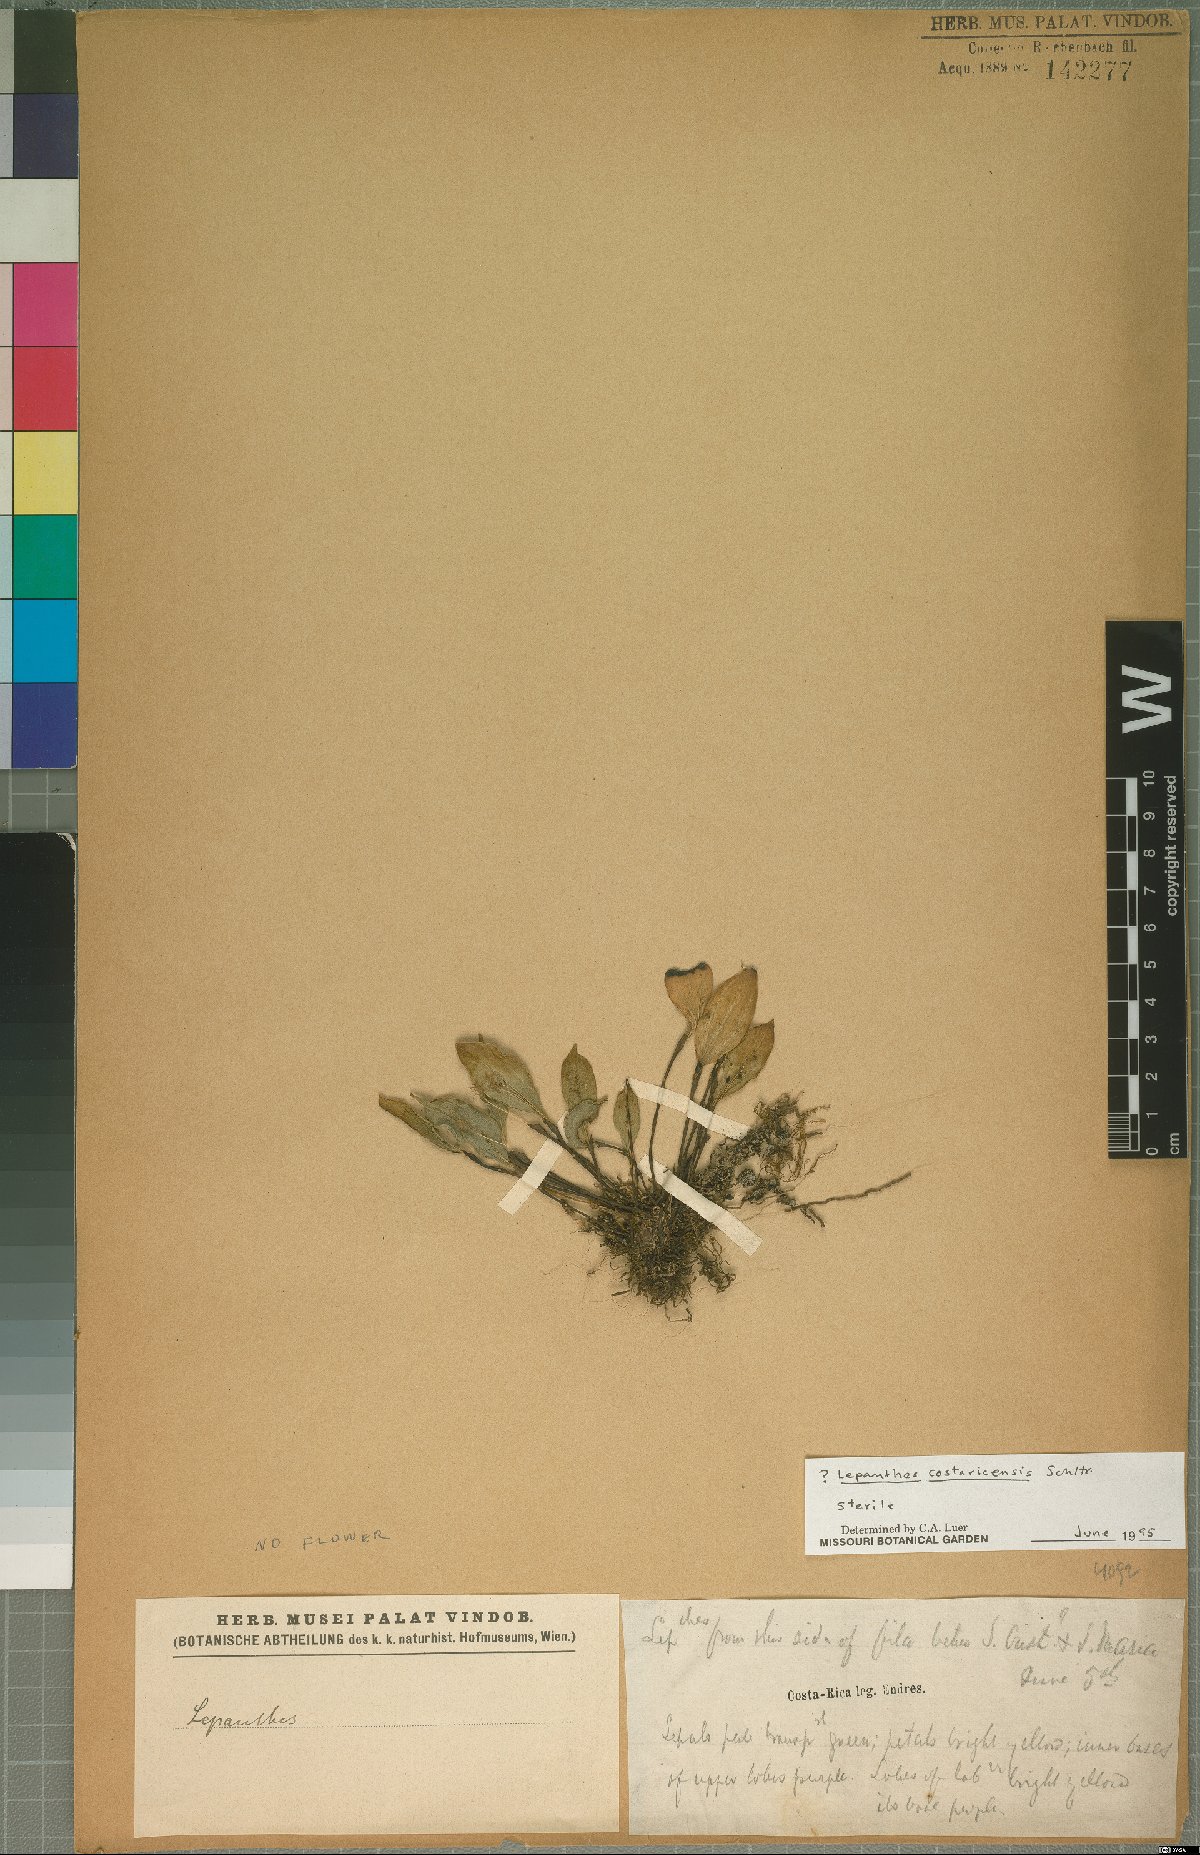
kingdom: Plantae
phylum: Tracheophyta
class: Liliopsida
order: Asparagales
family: Orchidaceae
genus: Lepanthes
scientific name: Lepanthes costaricensis
